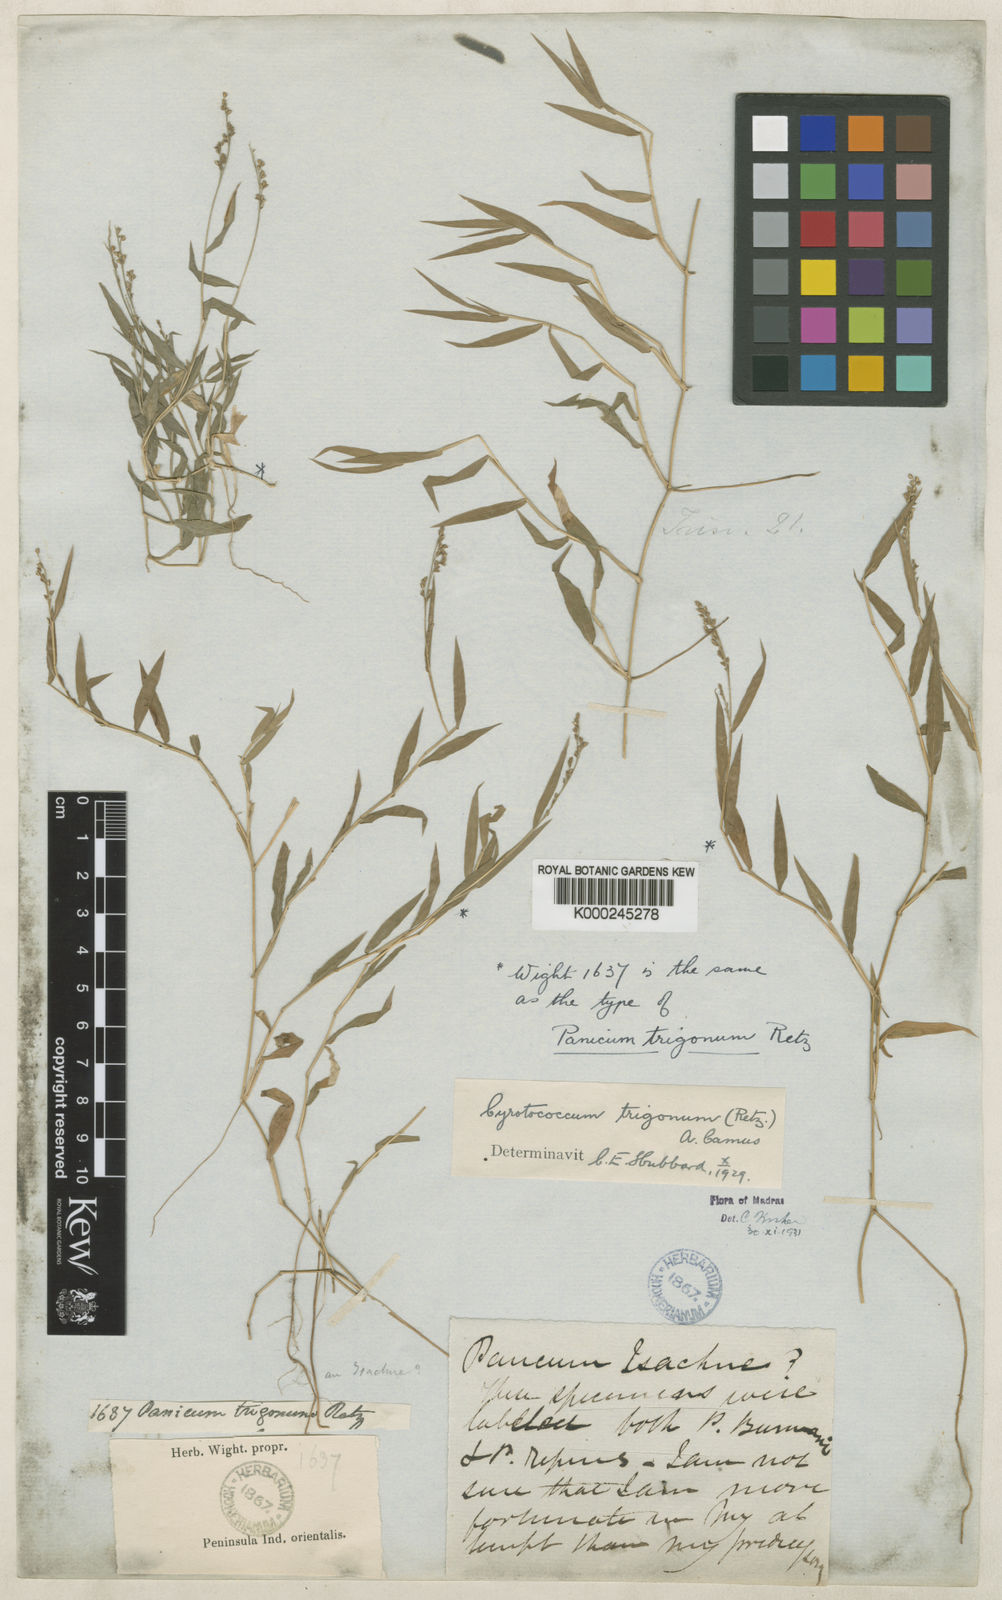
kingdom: Plantae
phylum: Tracheophyta
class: Liliopsida
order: Poales
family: Poaceae
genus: Cyrtococcum
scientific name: Cyrtococcum trigonum
